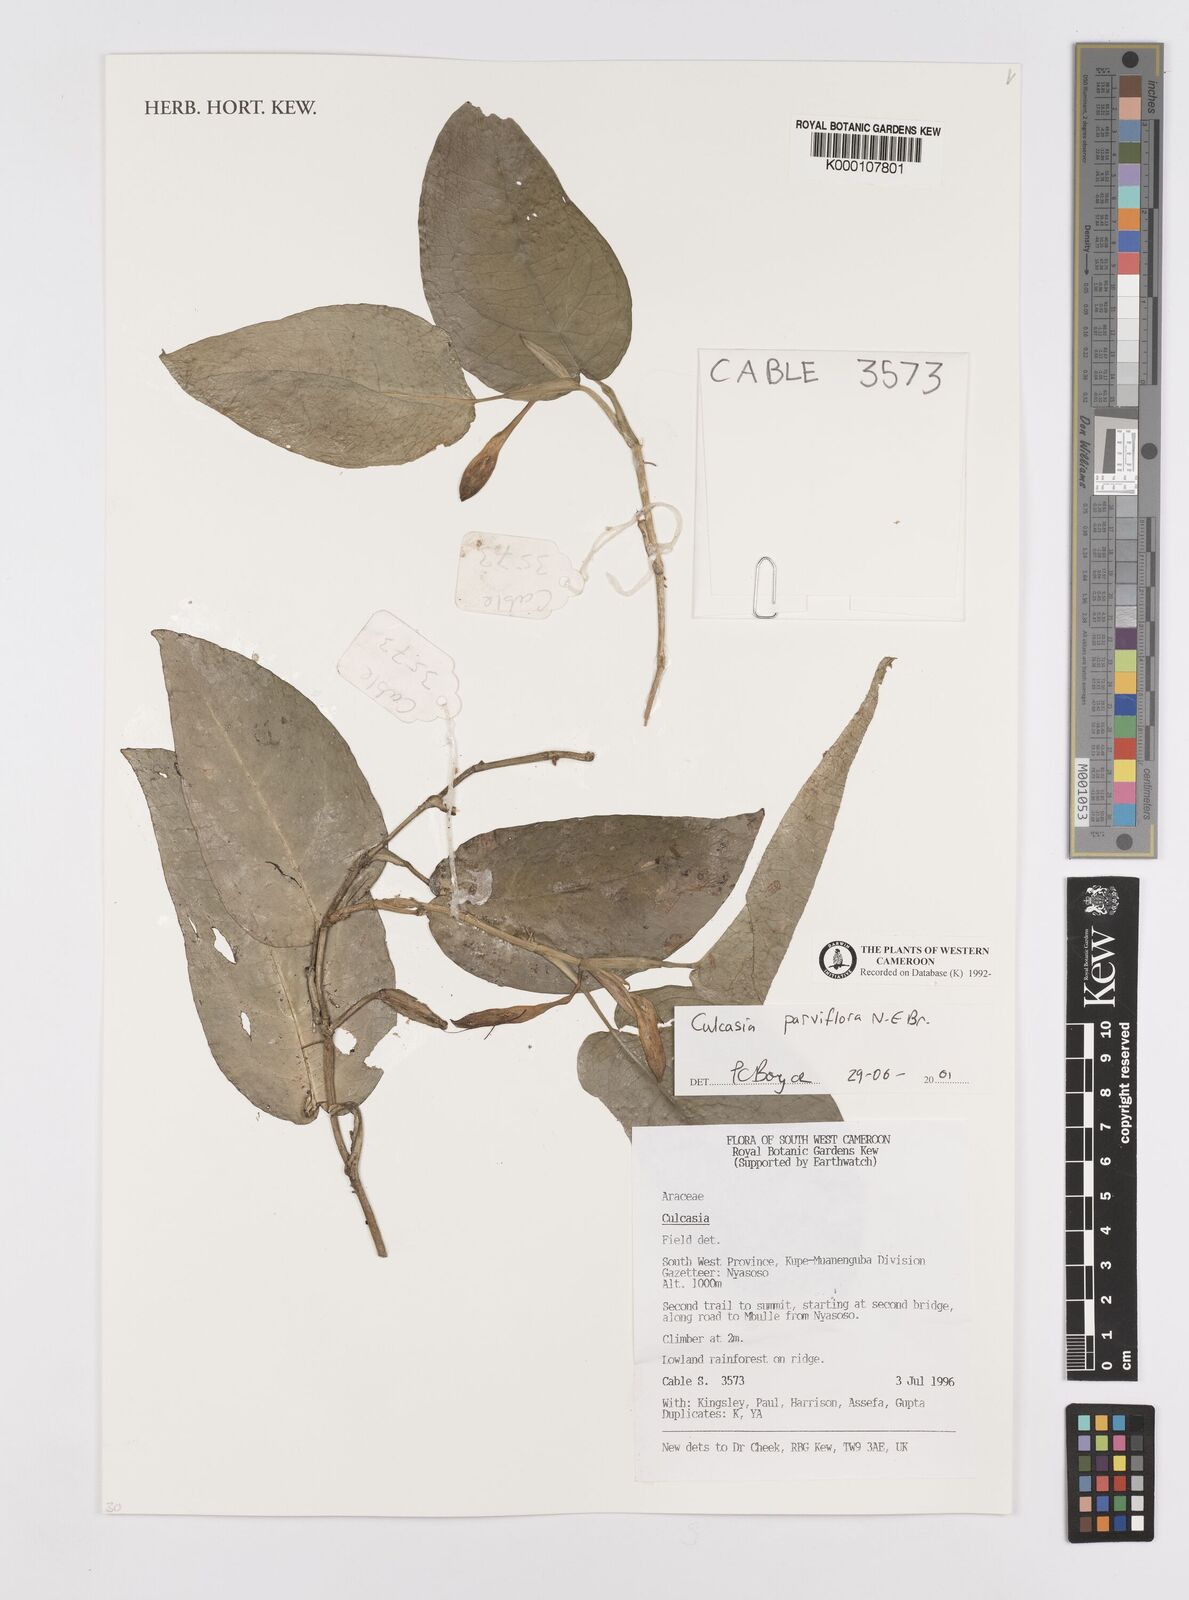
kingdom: Plantae
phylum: Tracheophyta
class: Liliopsida
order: Alismatales
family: Araceae
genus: Culcasia
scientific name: Culcasia parviflora
